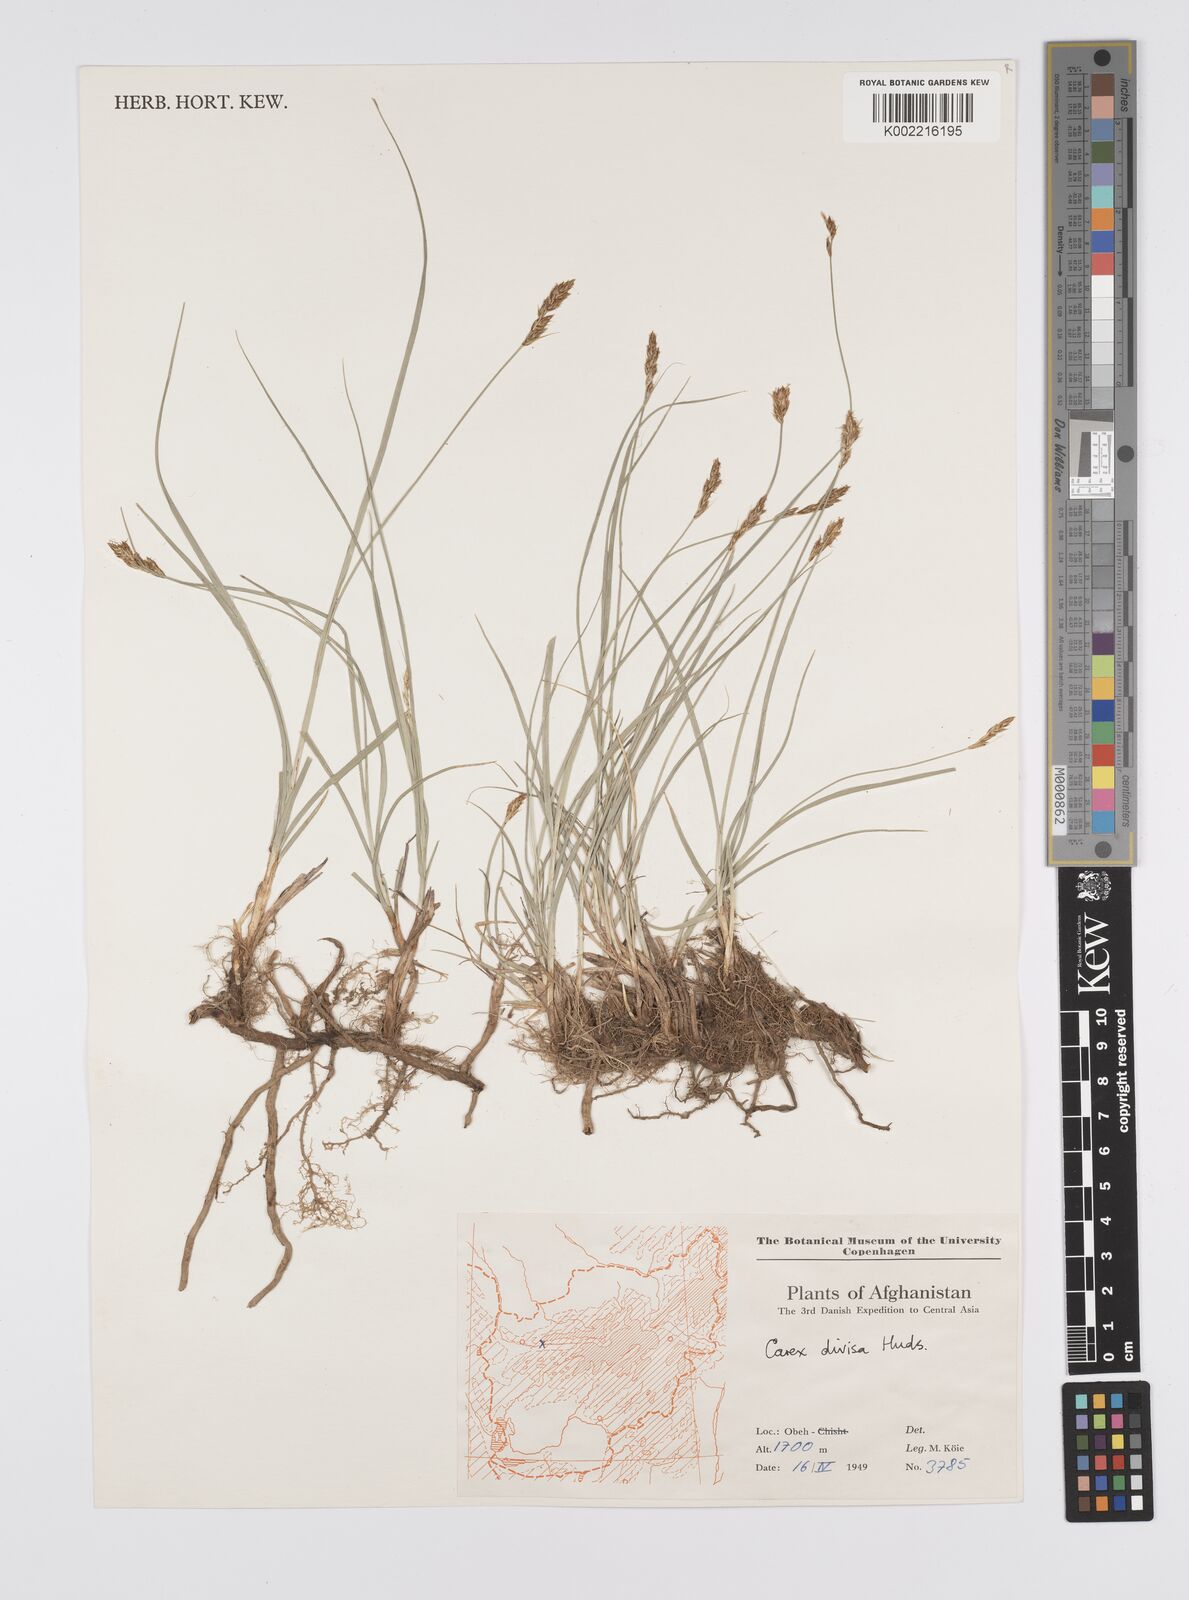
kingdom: Plantae
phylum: Tracheophyta
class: Liliopsida
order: Poales
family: Cyperaceae
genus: Carex
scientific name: Carex divisa
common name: Divided sedge
